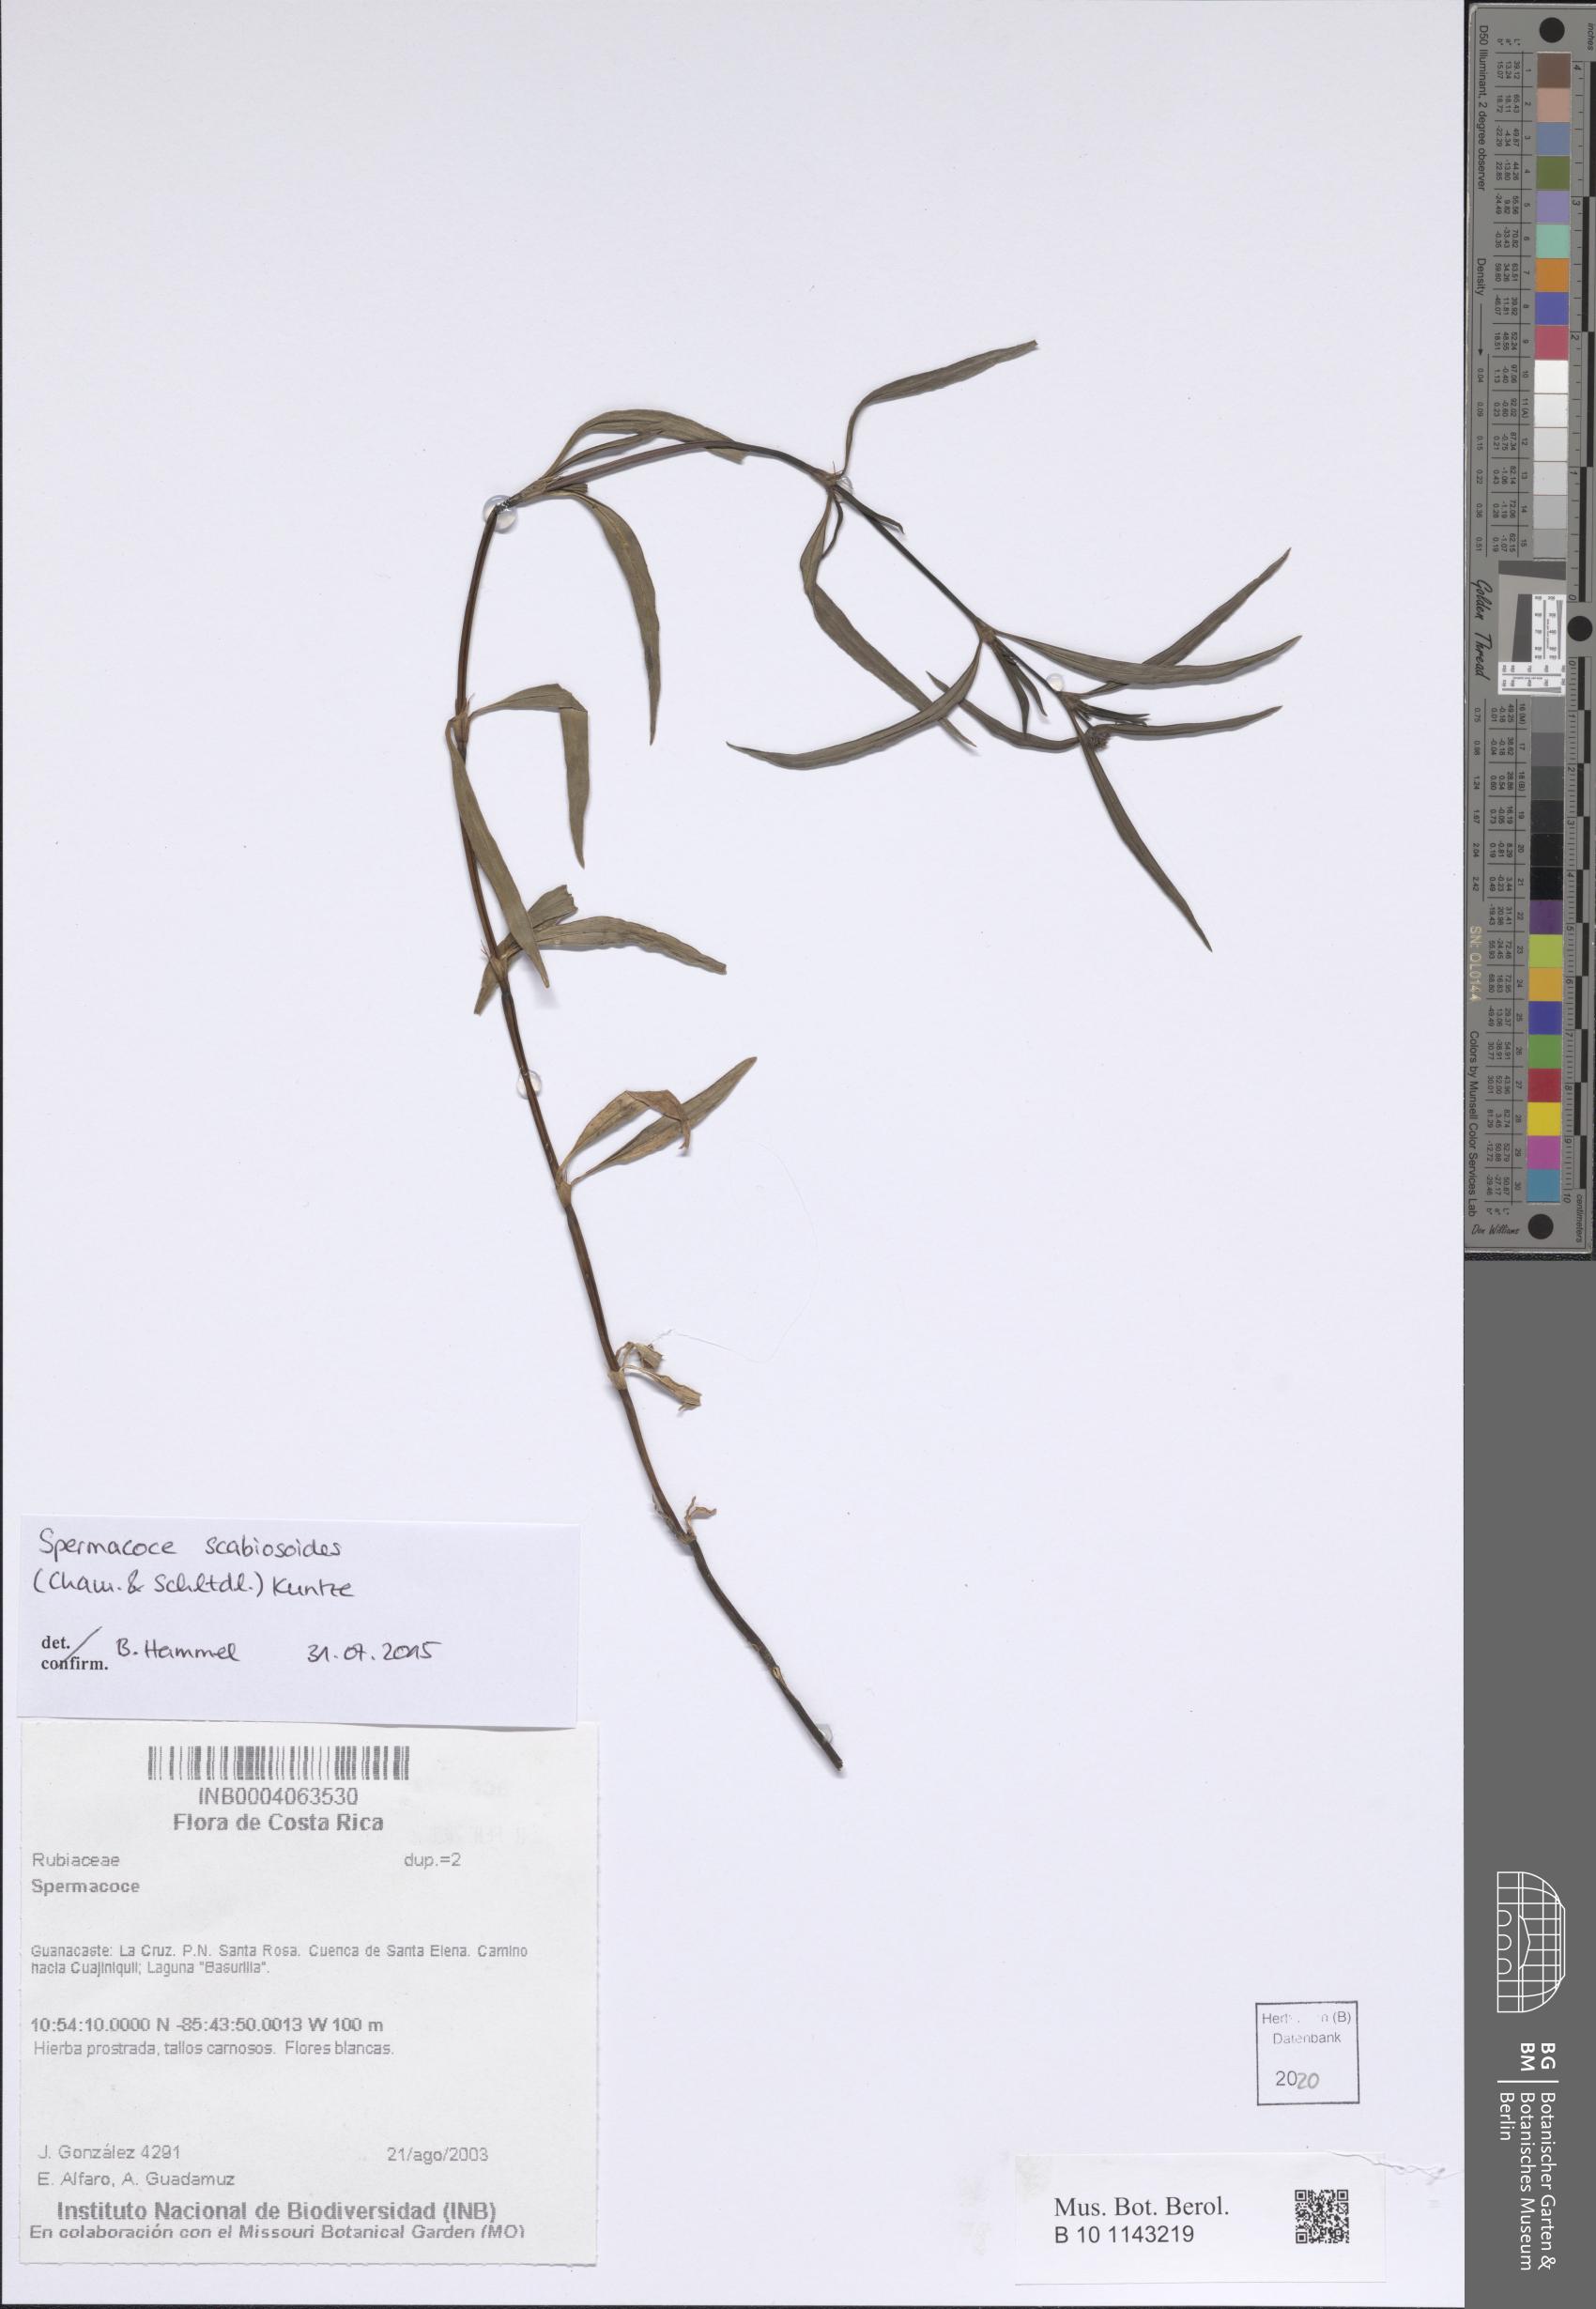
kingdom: Plantae
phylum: Tracheophyta
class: Magnoliopsida
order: Gentianales
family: Rubiaceae
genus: Spermacoce
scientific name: Spermacoce scabiosoides
